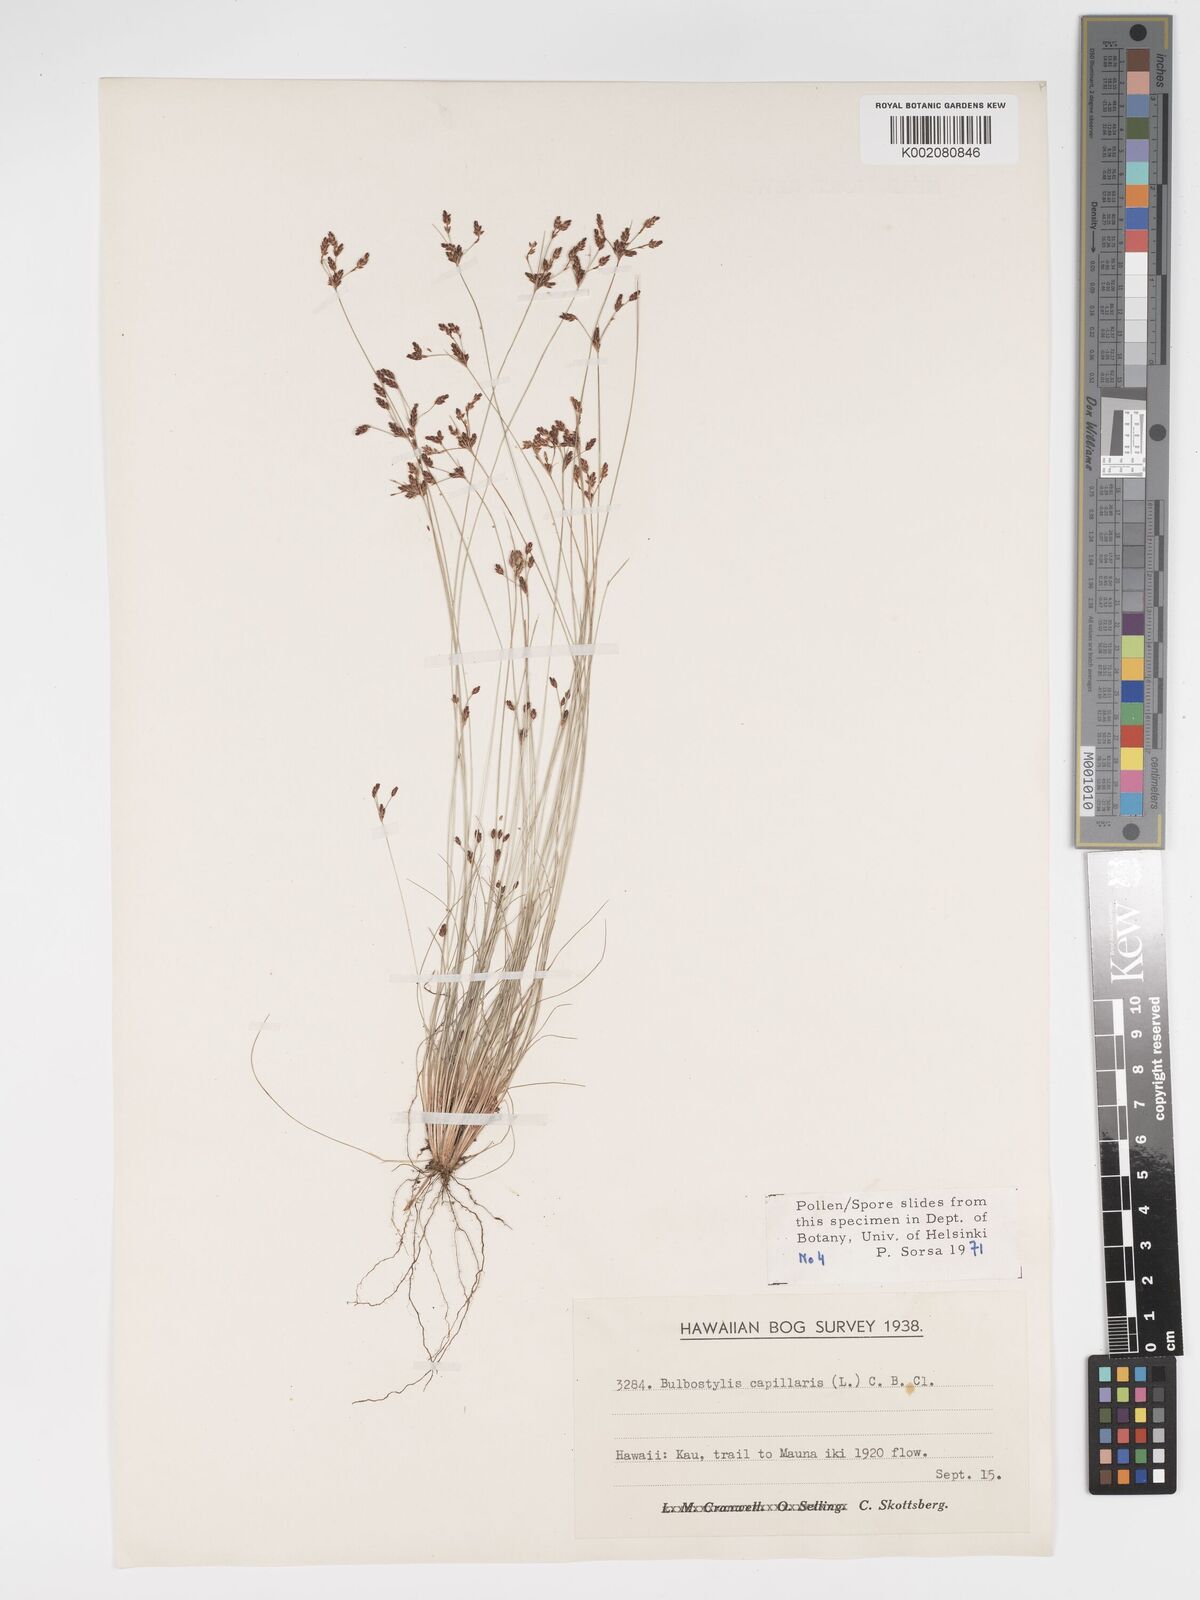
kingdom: Plantae
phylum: Tracheophyta
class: Liliopsida
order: Poales
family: Cyperaceae
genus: Bulbostylis
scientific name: Bulbostylis capillaris
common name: Densetuft hairsedge
